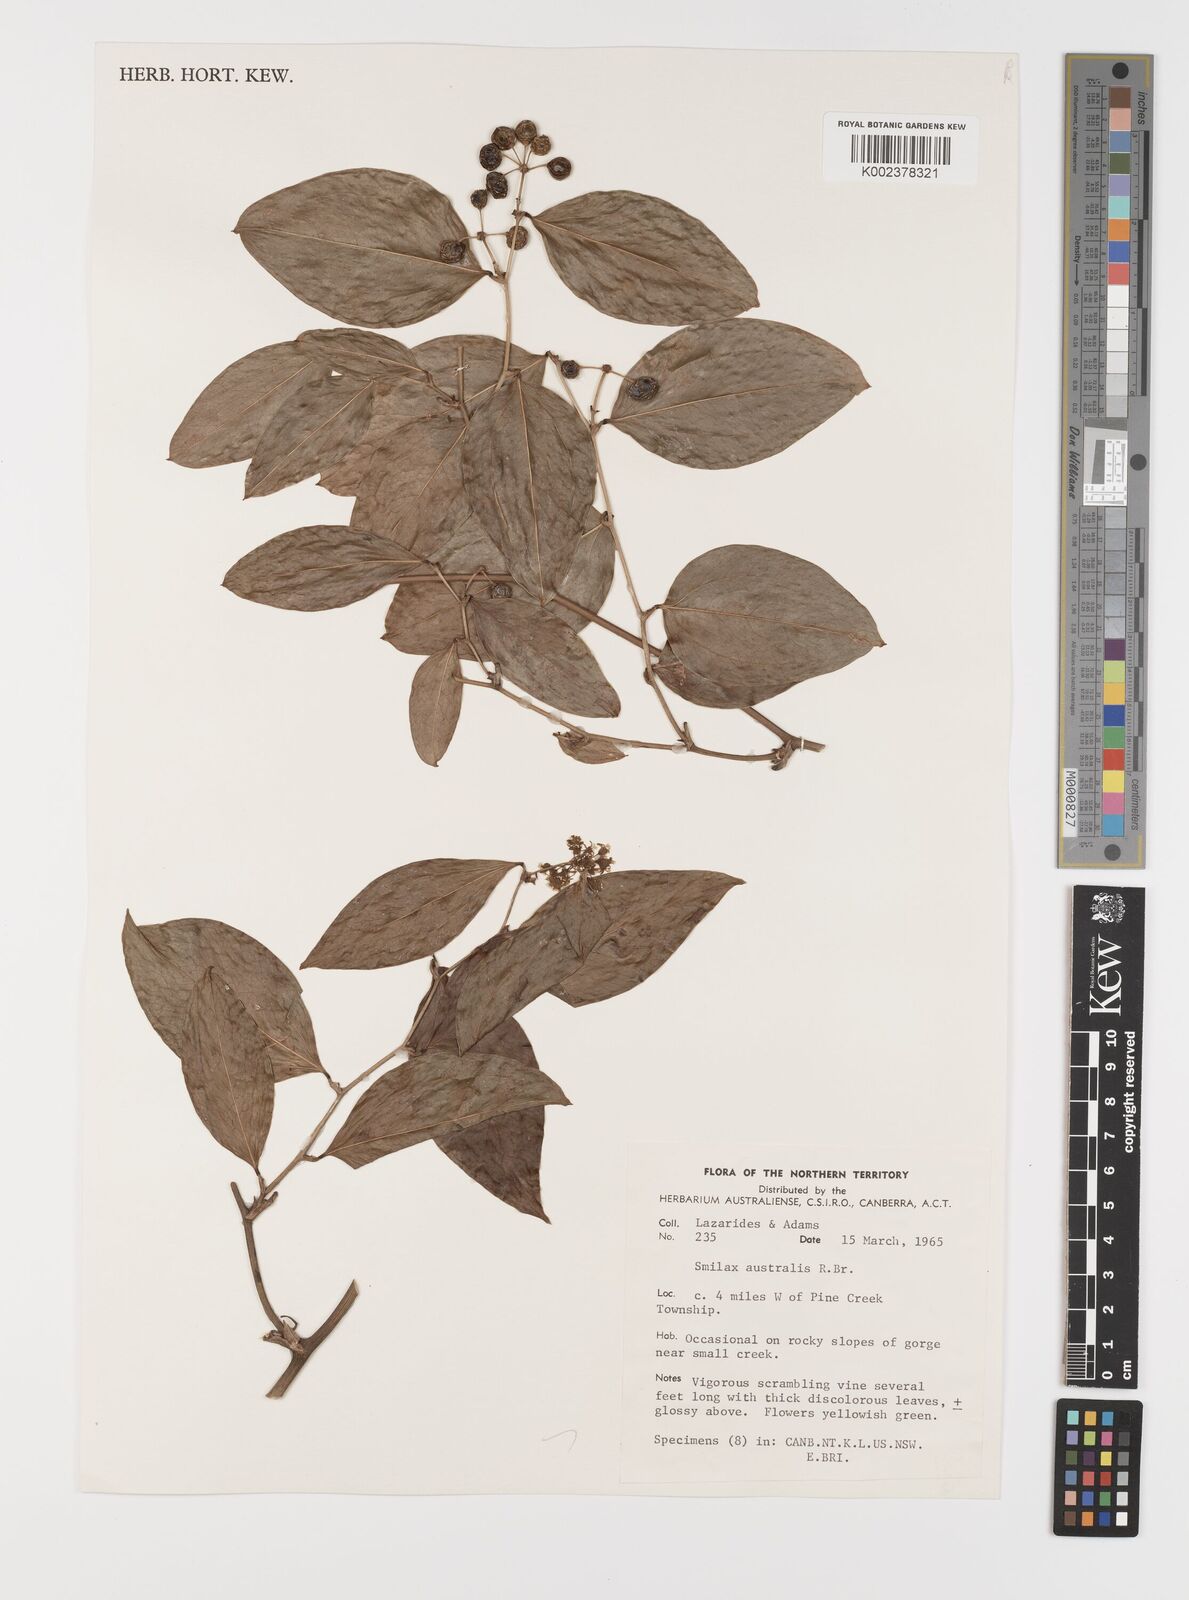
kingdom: Plantae
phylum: Tracheophyta
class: Liliopsida
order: Liliales
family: Smilacaceae
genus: Smilax
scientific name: Smilax australis
